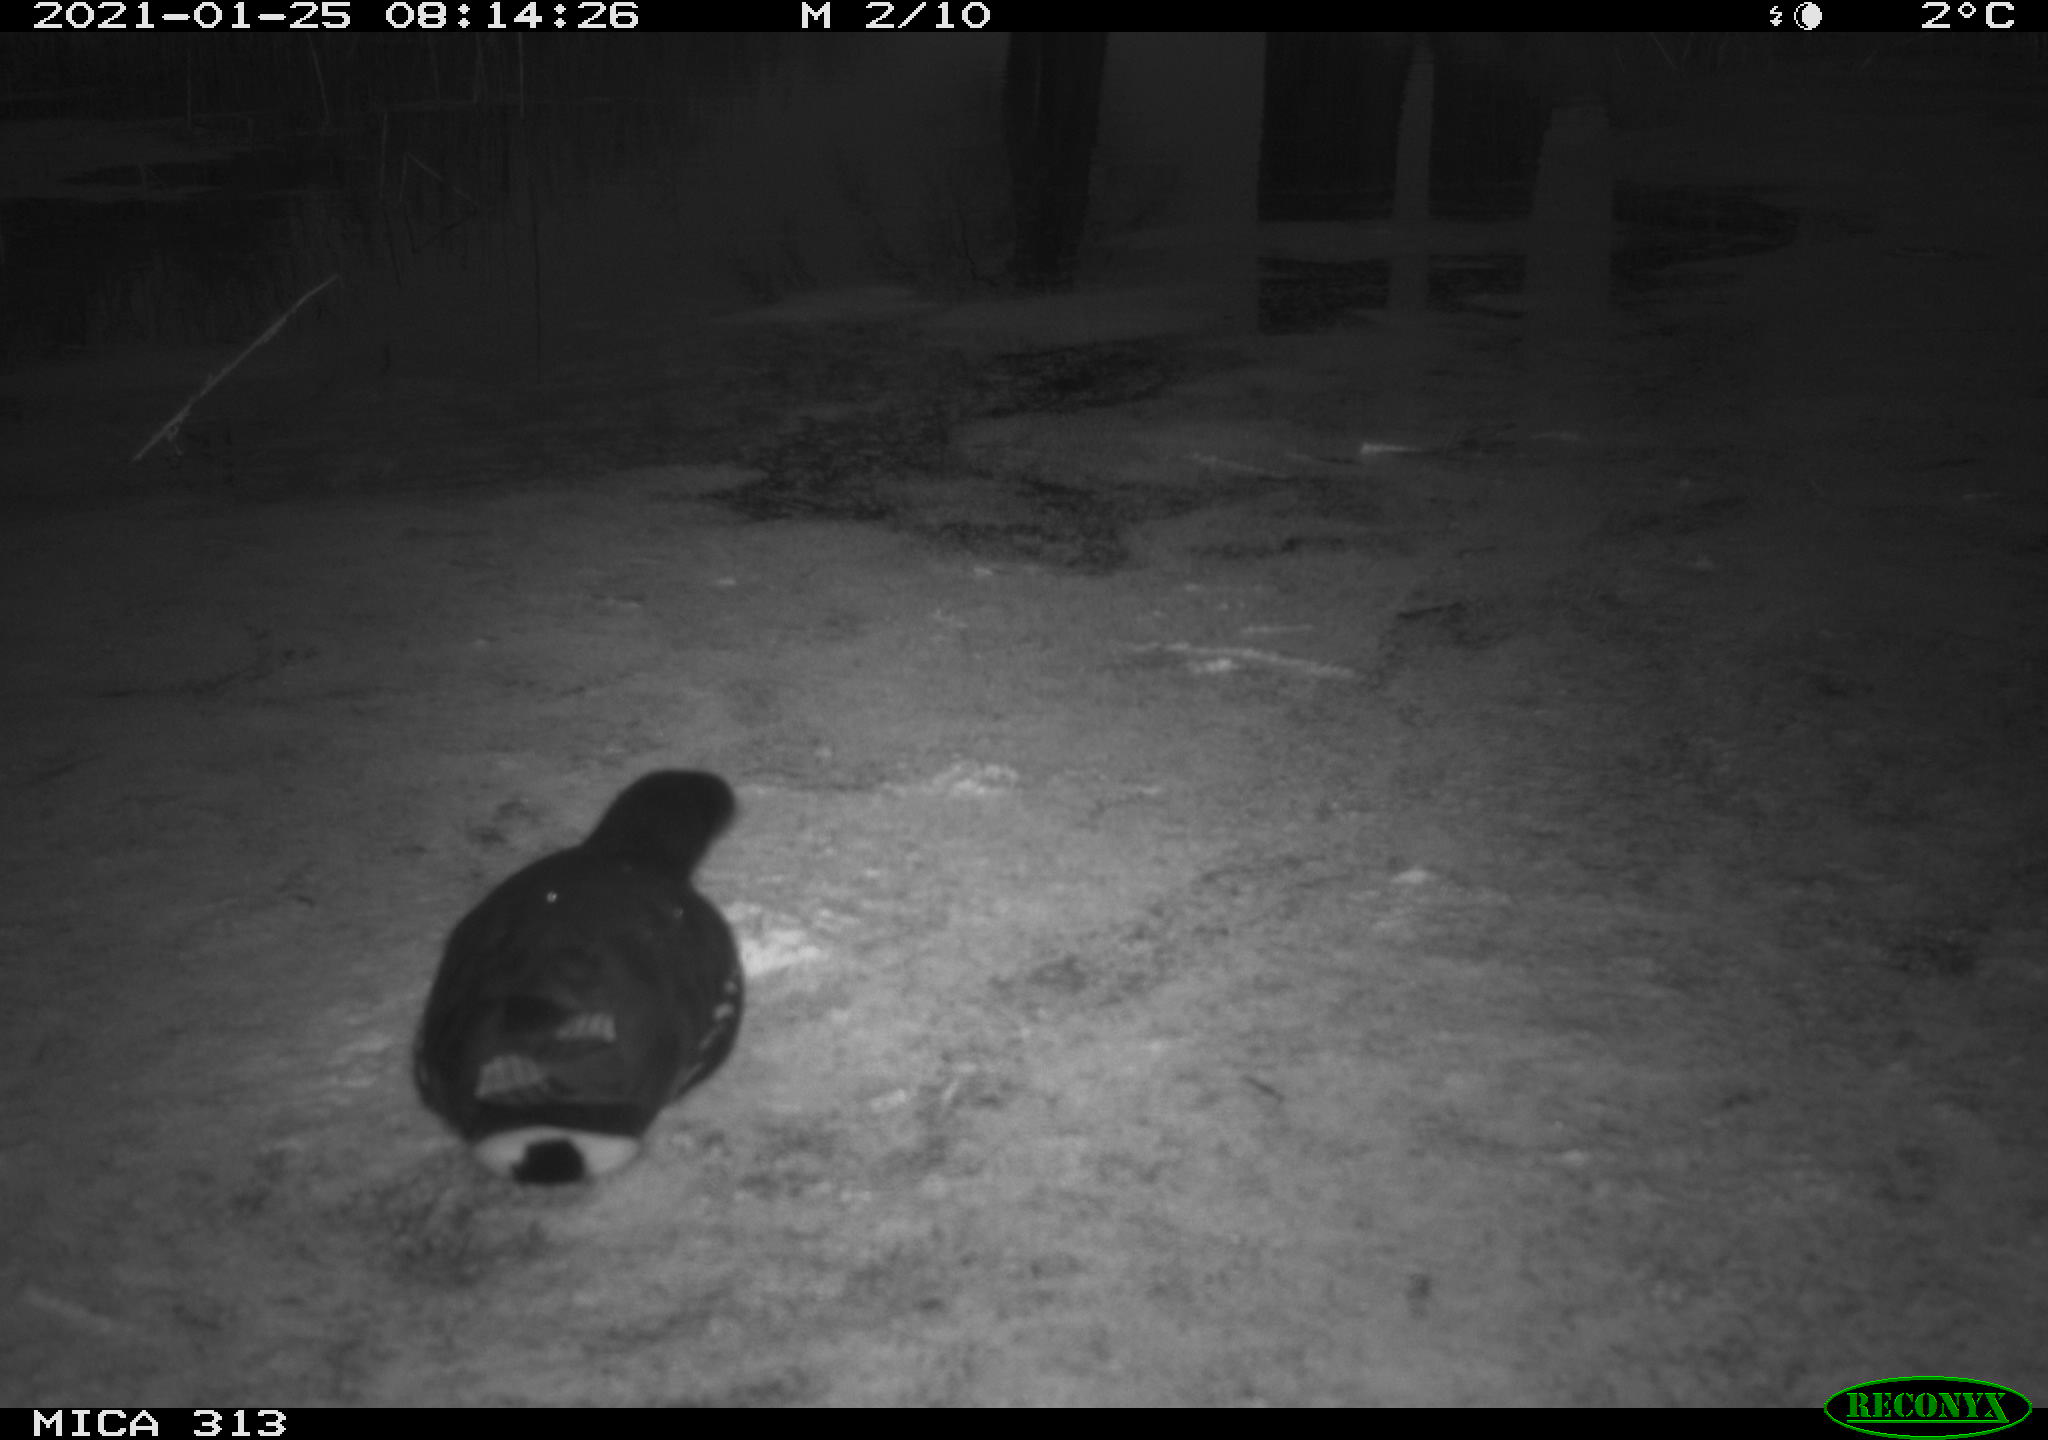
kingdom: Animalia
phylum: Chordata
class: Aves
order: Gruiformes
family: Rallidae
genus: Gallinula
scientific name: Gallinula chloropus
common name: Common moorhen
